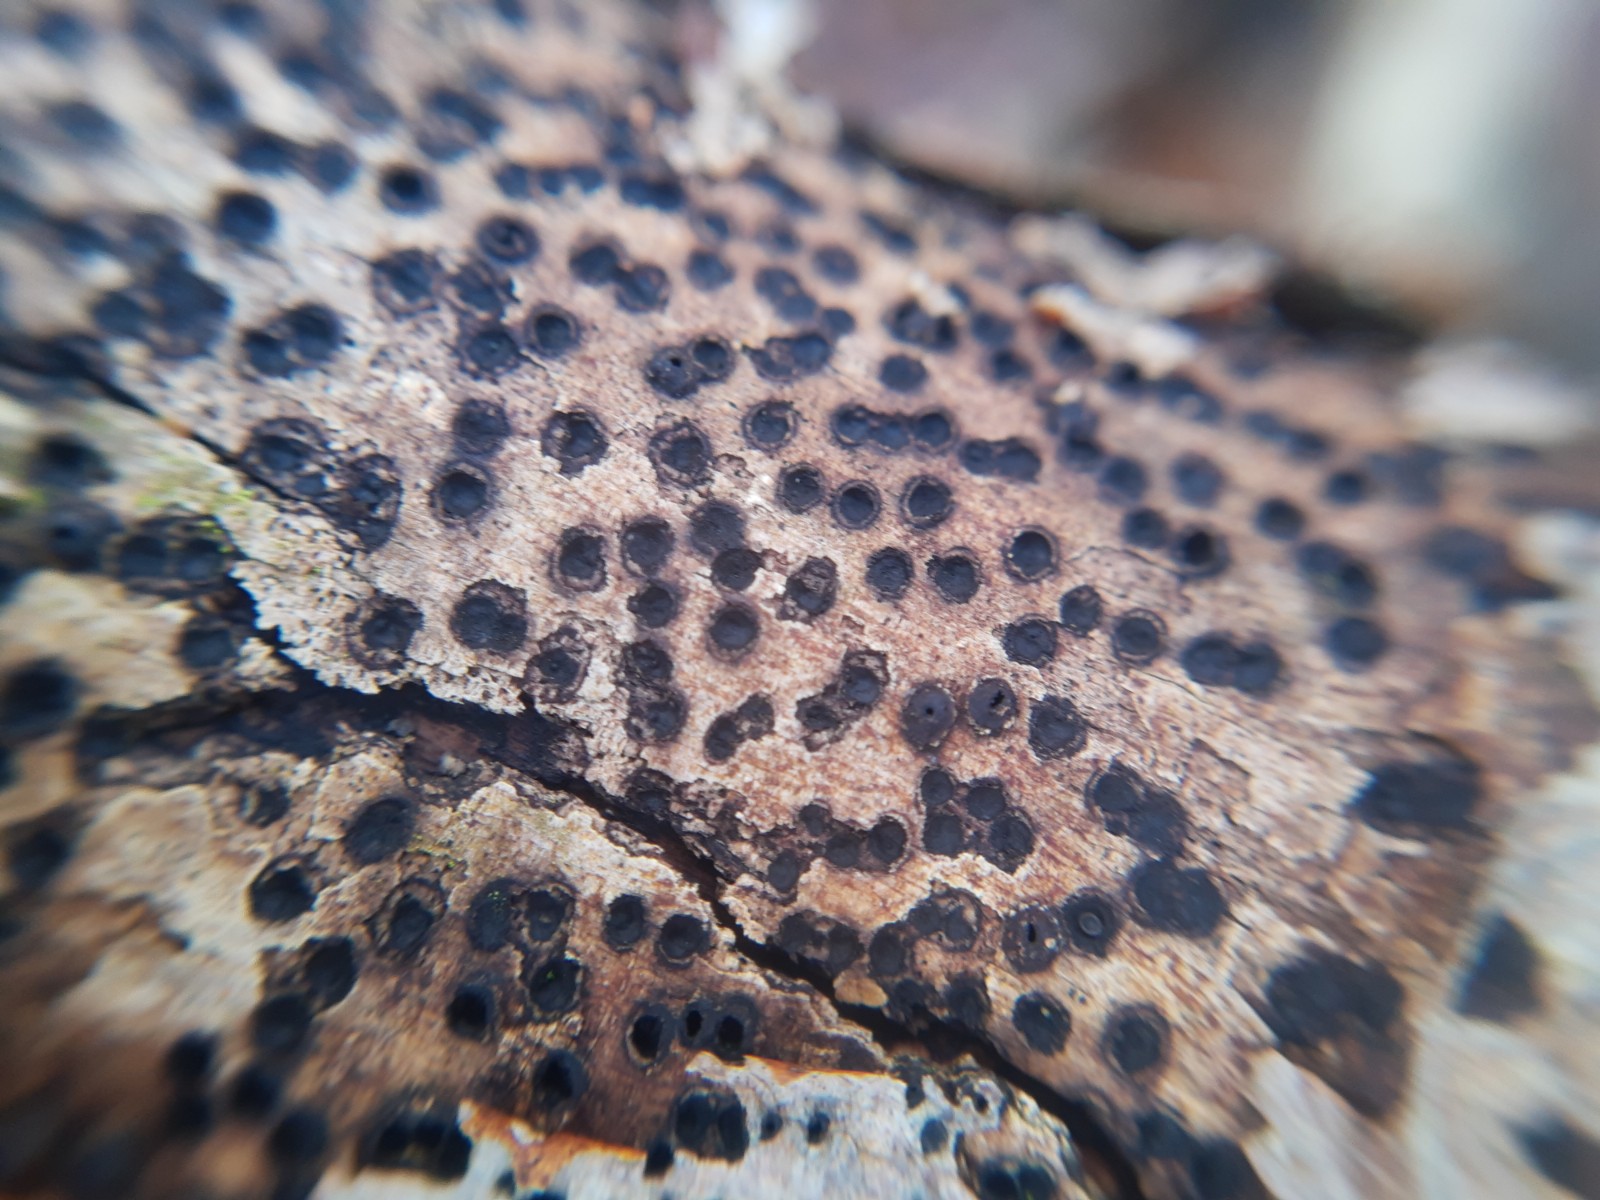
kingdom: Fungi
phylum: Ascomycota
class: Dothideomycetes
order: Pleosporales
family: Massariaceae
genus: Massaria
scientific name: Massaria inquinans
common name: ahorn-kulvulkan
